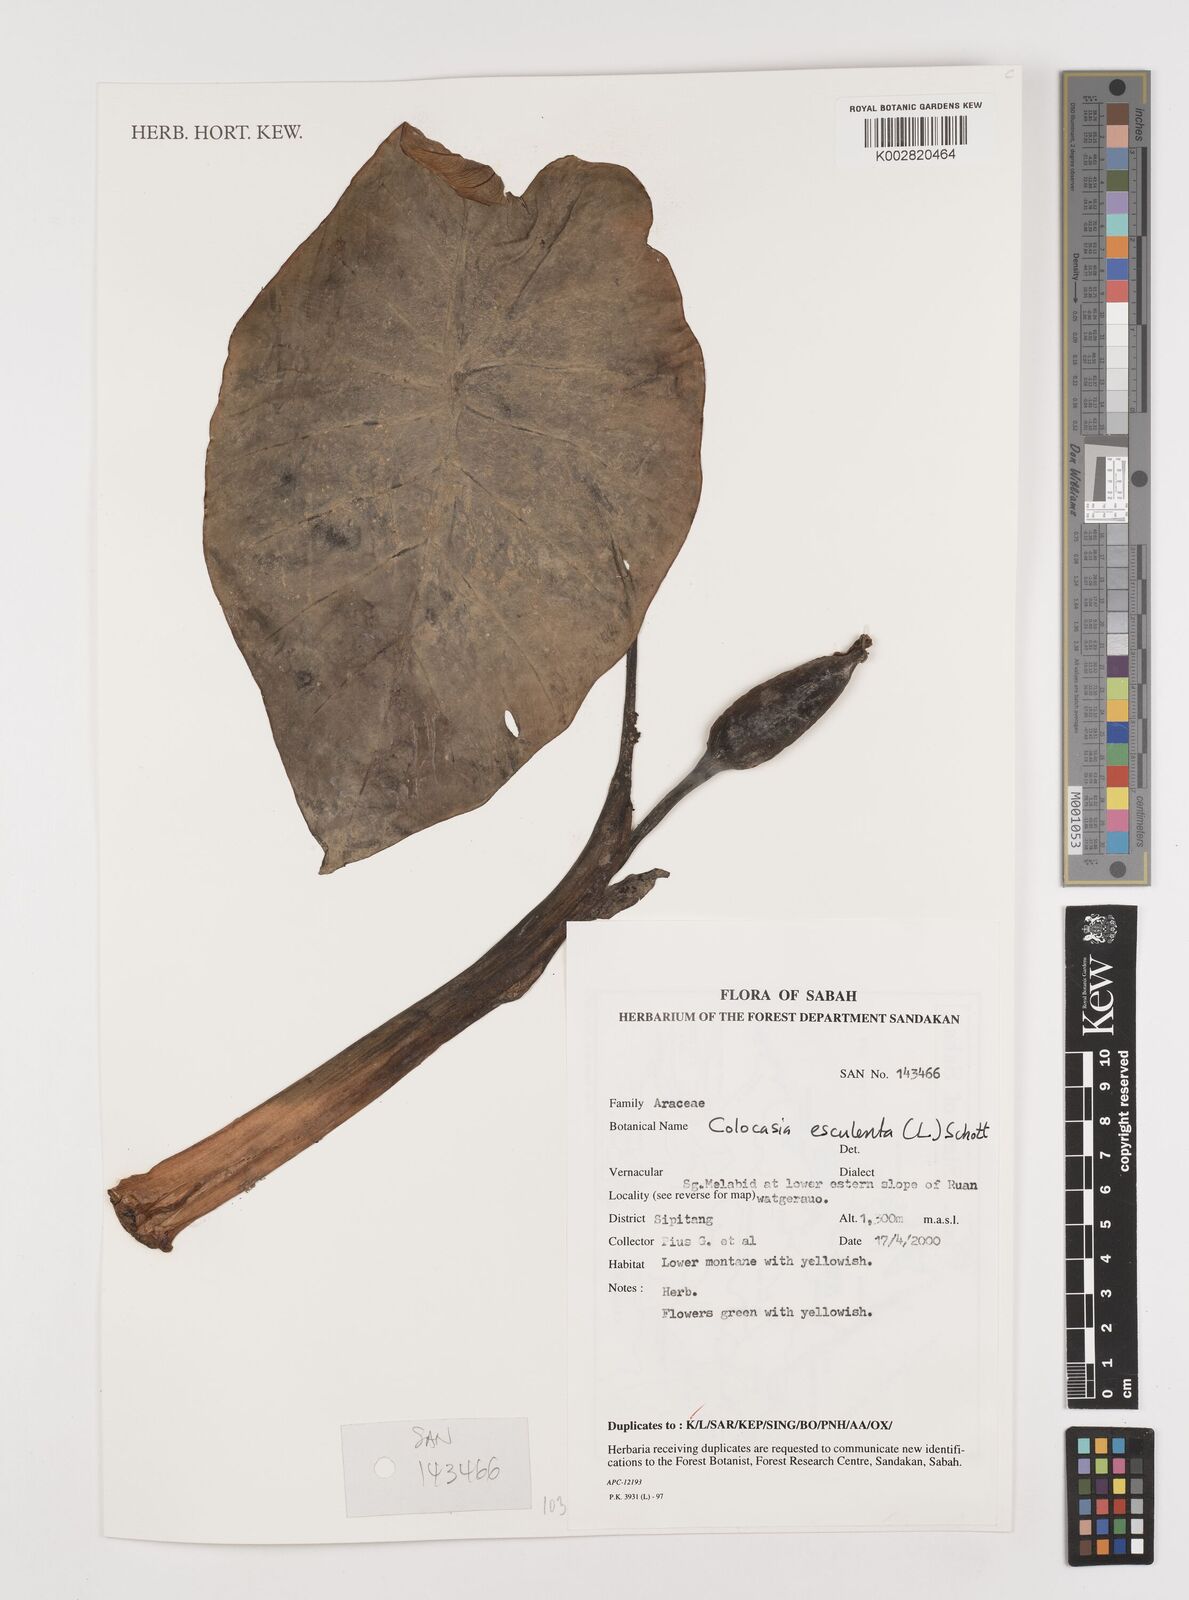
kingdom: Plantae
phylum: Tracheophyta
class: Liliopsida
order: Alismatales
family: Araceae
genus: Colocasia
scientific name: Colocasia esculenta
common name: Taro
